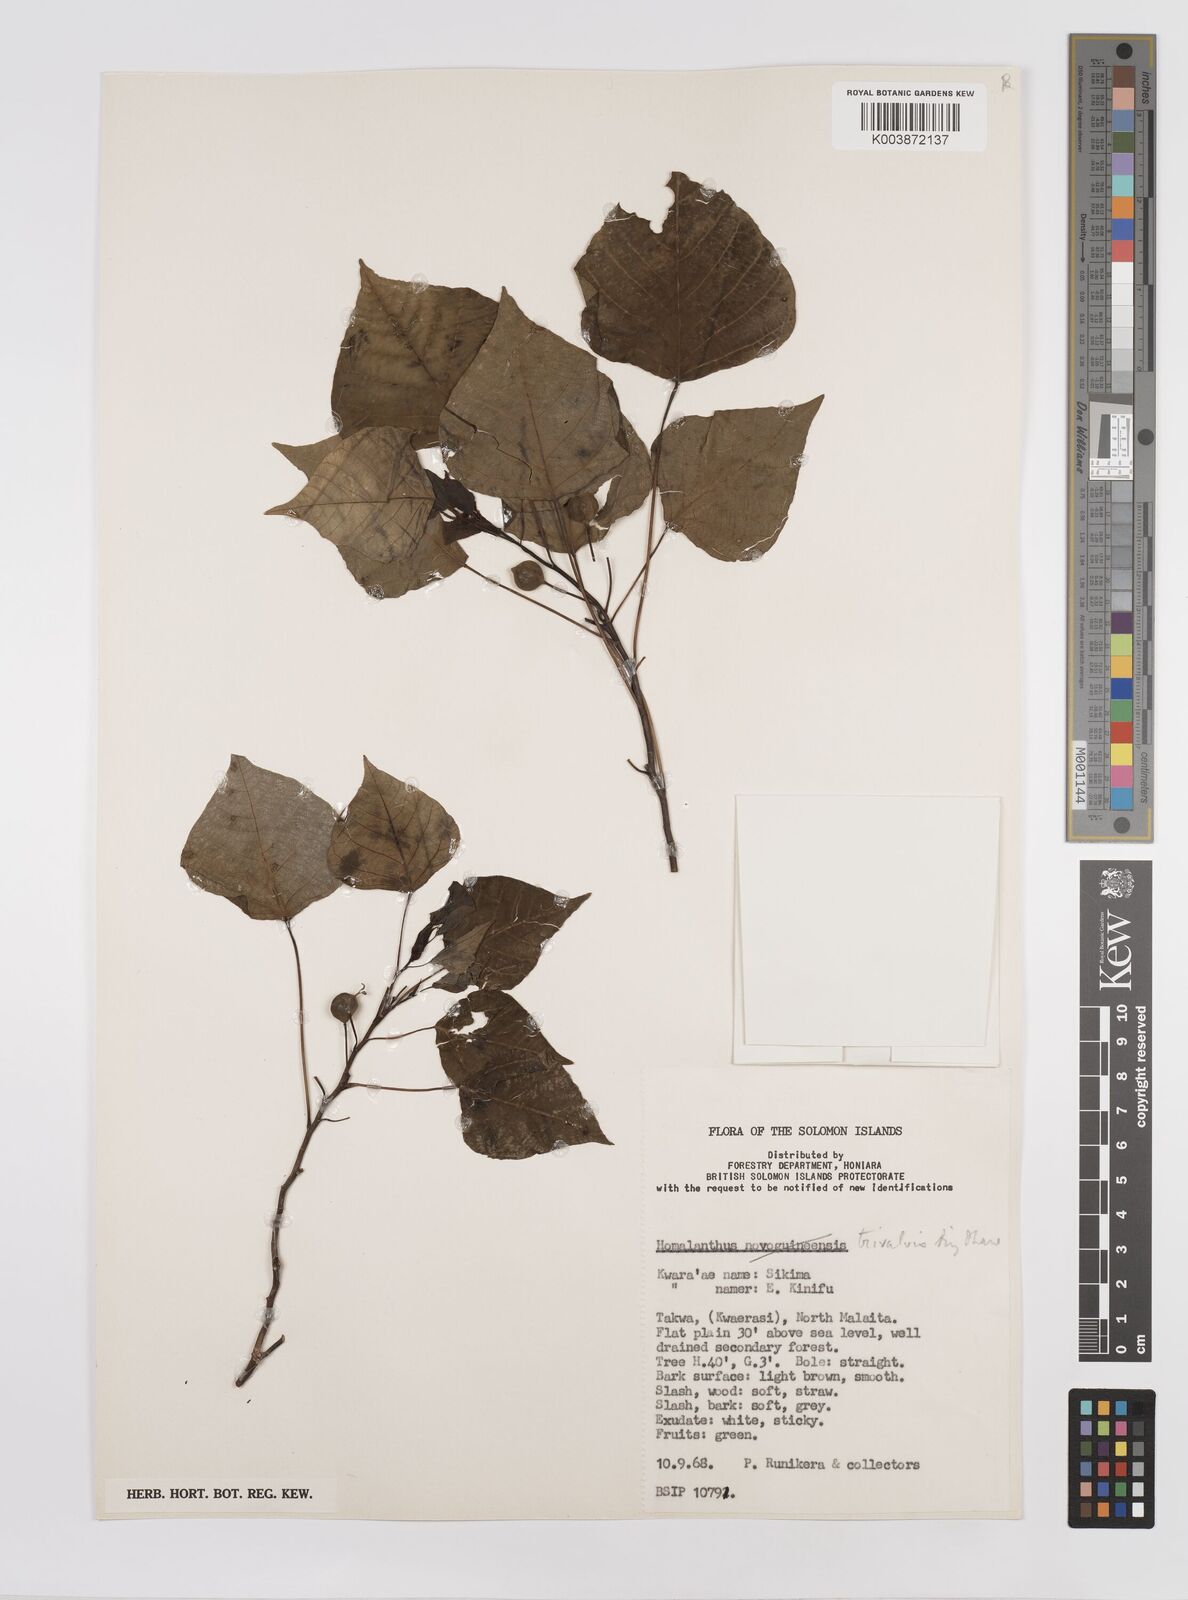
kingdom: Plantae
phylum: Tracheophyta
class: Magnoliopsida
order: Malpighiales
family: Euphorbiaceae
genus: Homalanthus
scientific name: Homalanthus trivalvis
